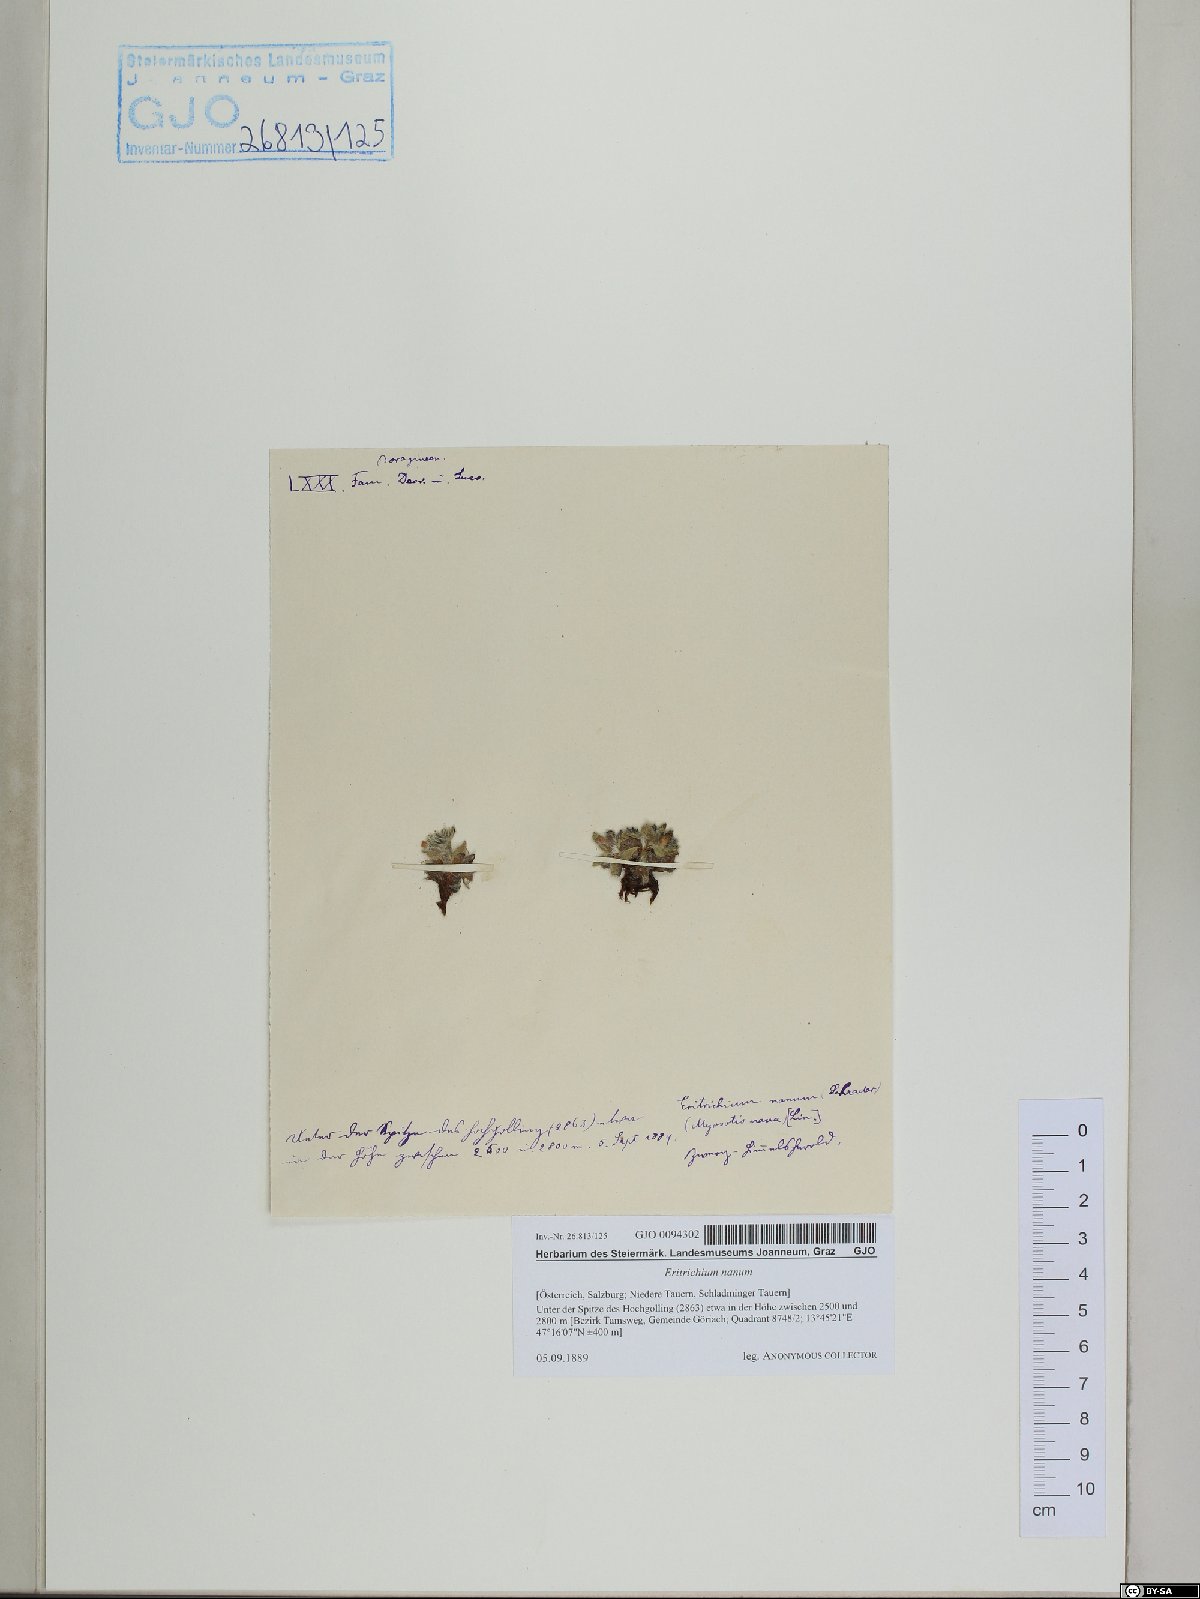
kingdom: Plantae
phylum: Tracheophyta
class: Magnoliopsida
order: Boraginales
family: Boraginaceae
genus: Eritrichium
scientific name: Eritrichium nanum
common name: King-of-the-alps
